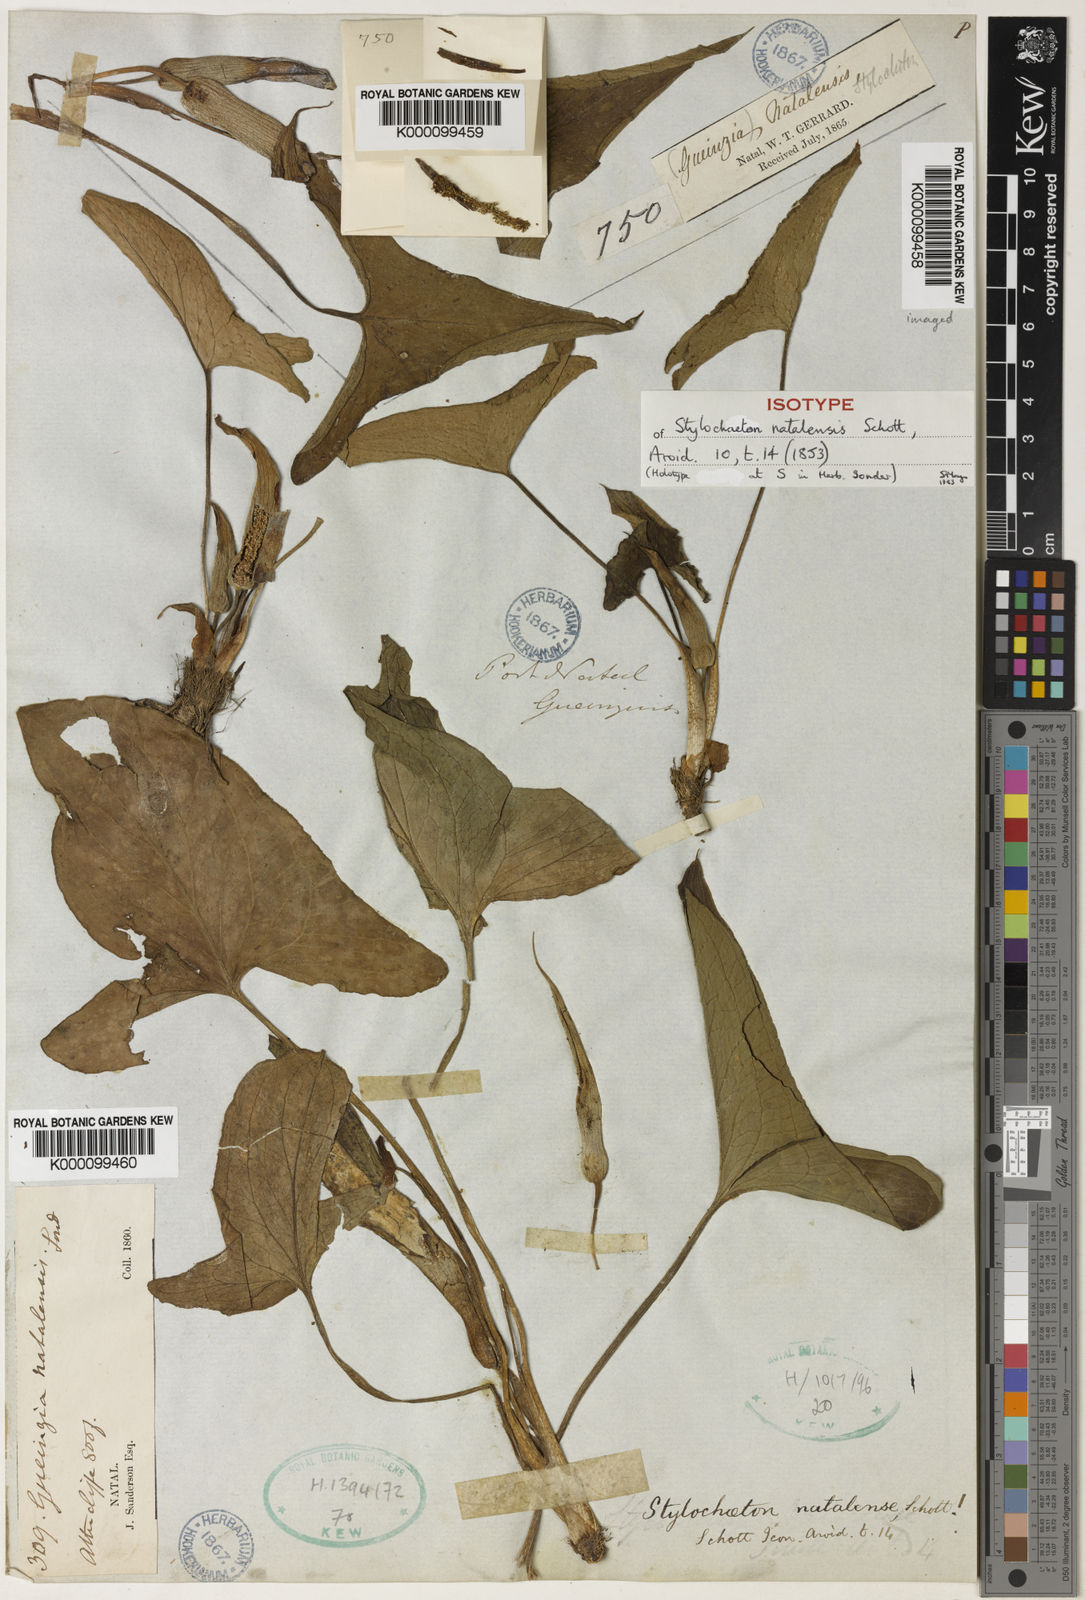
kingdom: Plantae
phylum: Tracheophyta
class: Liliopsida
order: Alismatales
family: Araceae
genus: Stylochaeton
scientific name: Stylochaeton
